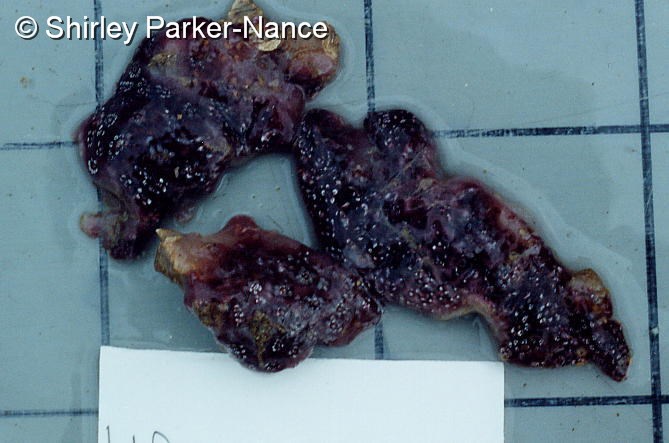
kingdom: Animalia
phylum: Chordata
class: Ascidiacea
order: Aplousobranchia
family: Holozoidae
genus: Distaplia
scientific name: Distaplia skoogi
